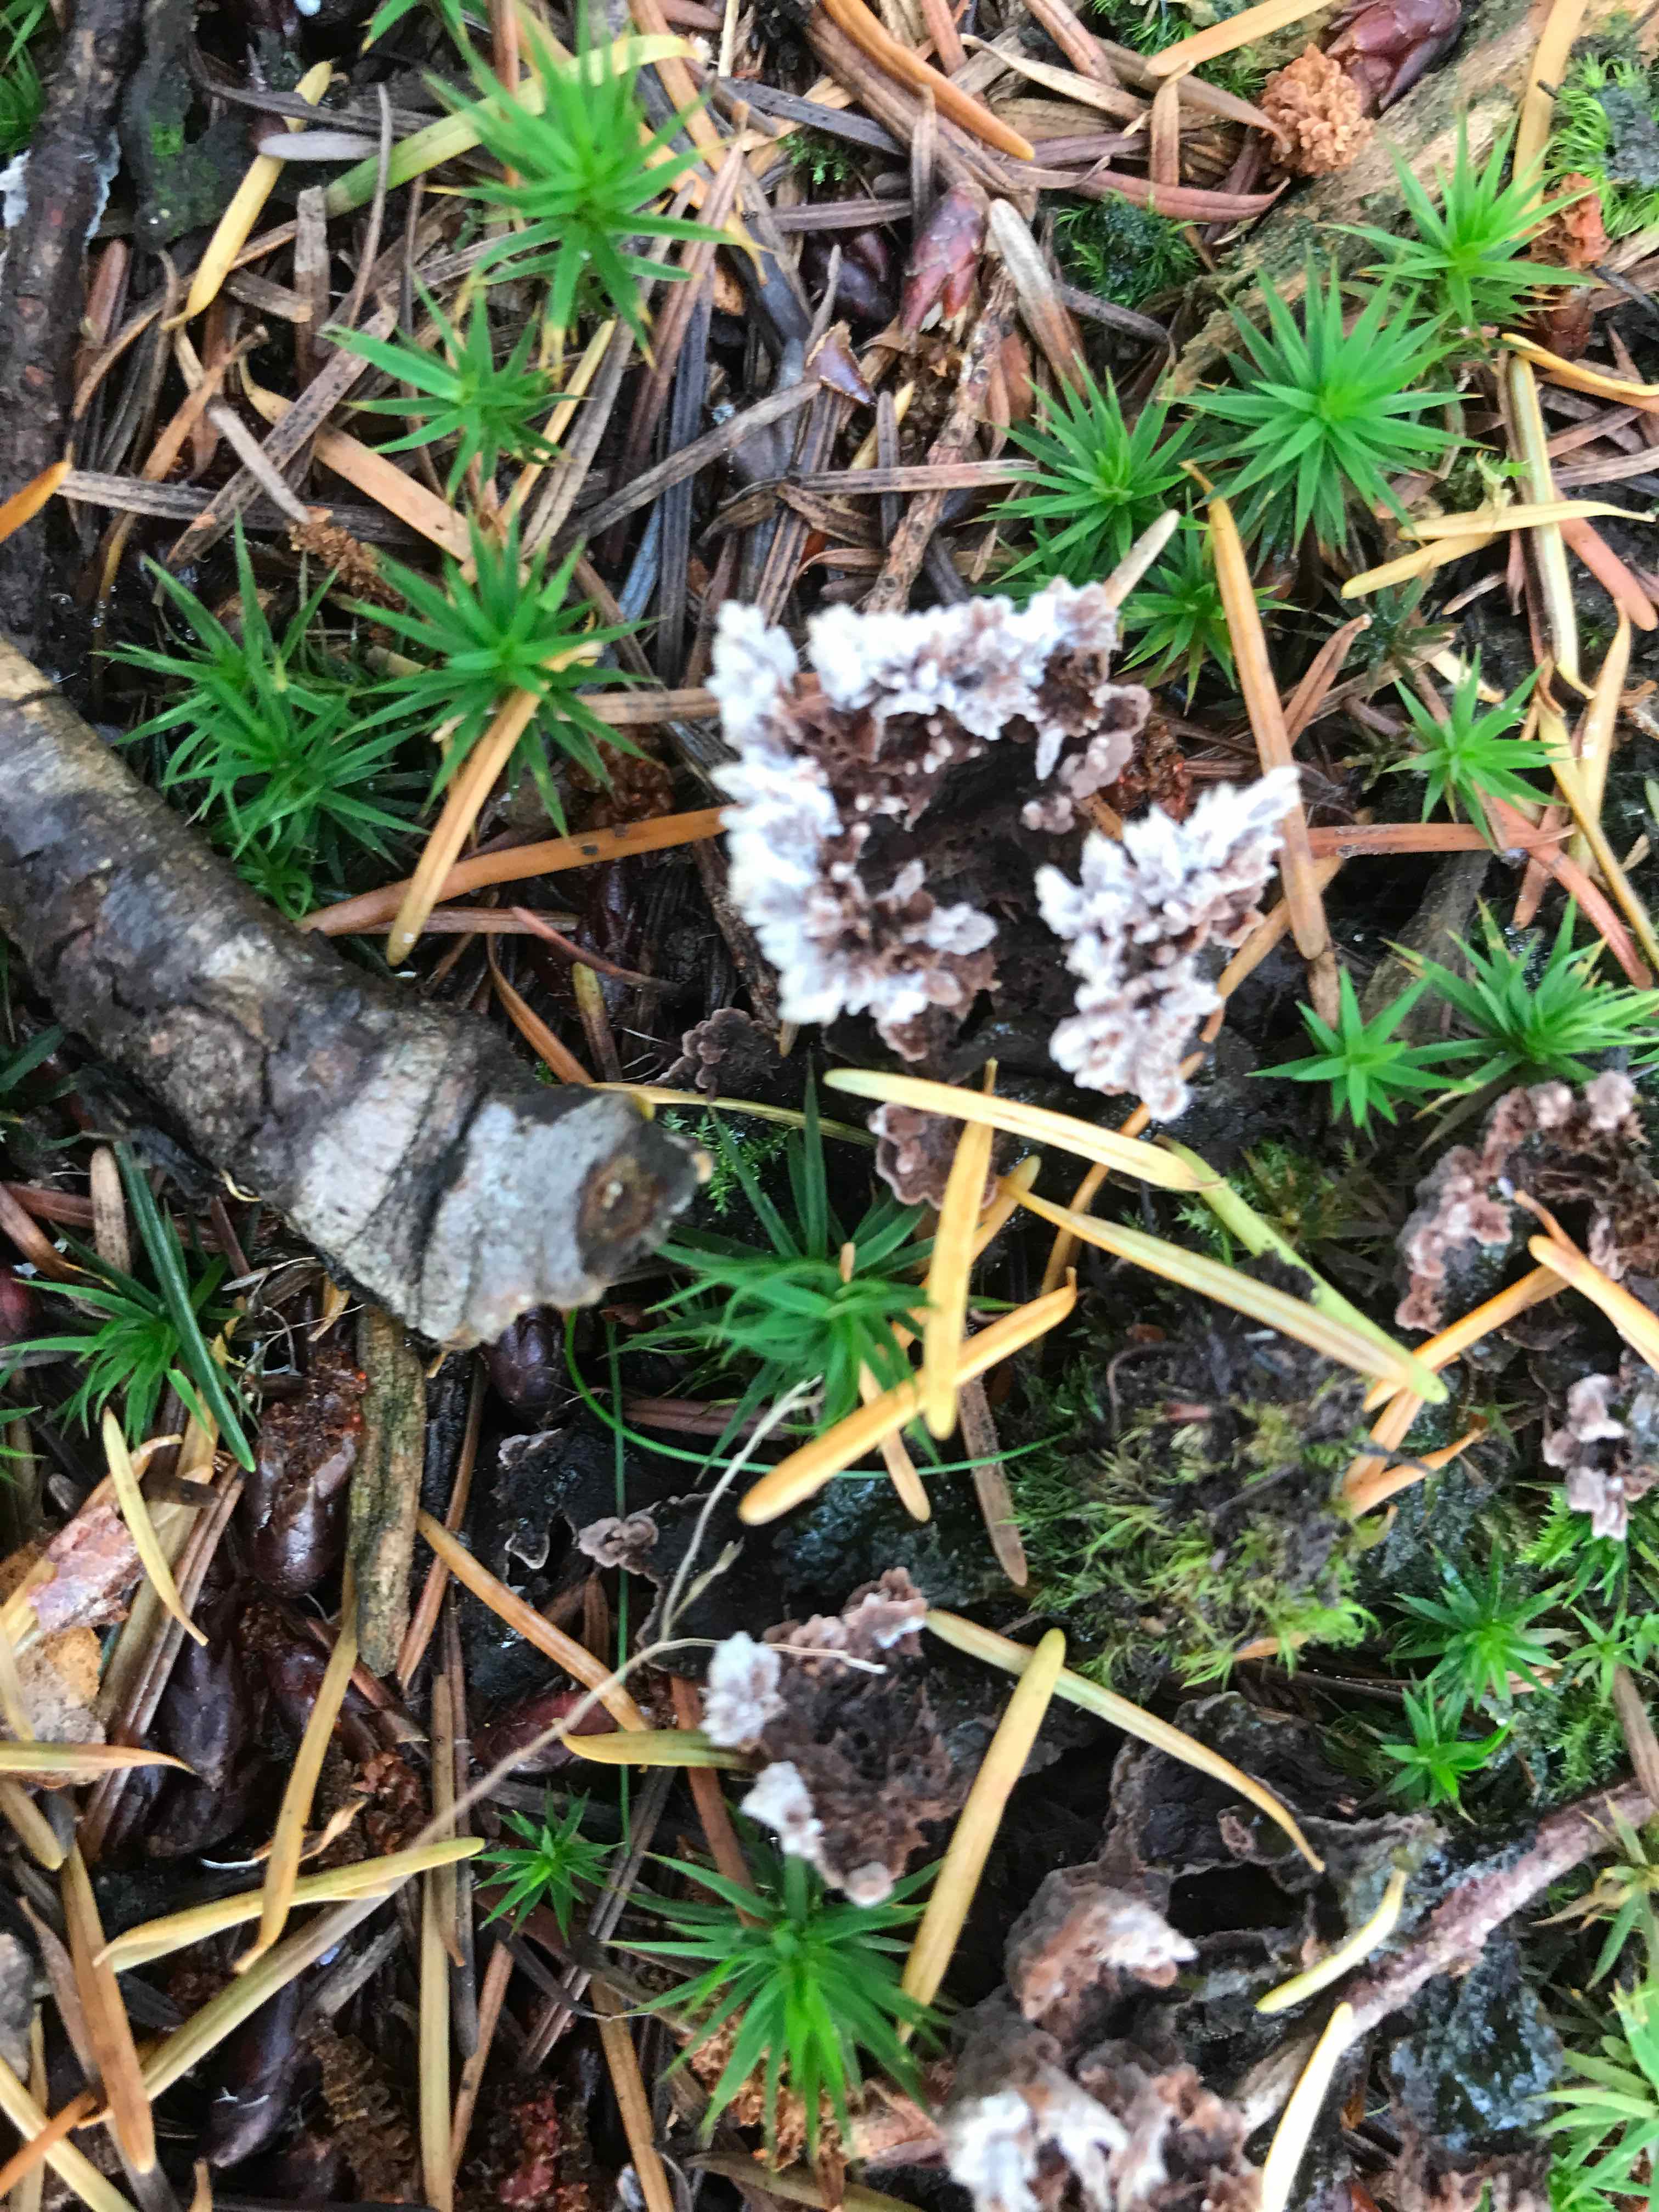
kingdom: Fungi
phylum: Basidiomycota
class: Agaricomycetes
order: Thelephorales
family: Thelephoraceae
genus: Thelephora
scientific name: Thelephora terrestris
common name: fliget frynsesvamp
